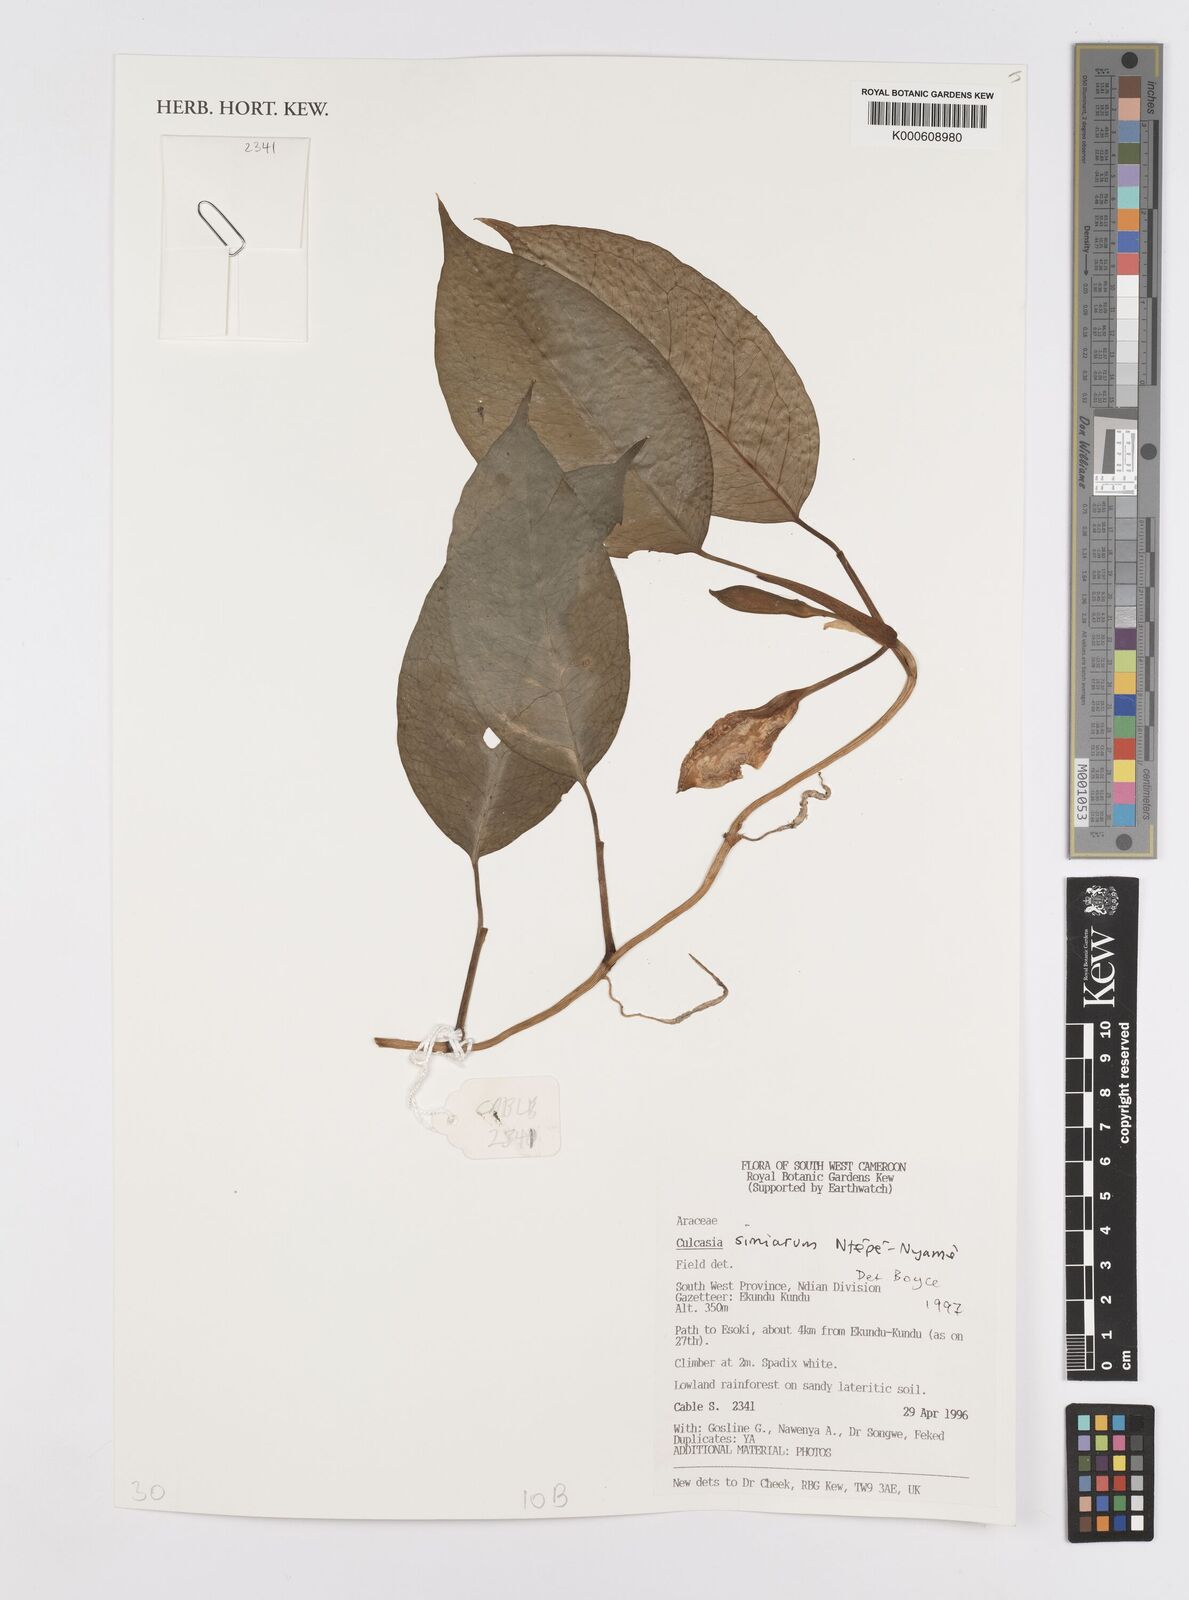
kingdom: Plantae
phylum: Tracheophyta
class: Liliopsida
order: Alismatales
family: Araceae
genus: Culcasia
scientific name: Culcasia simiarum
